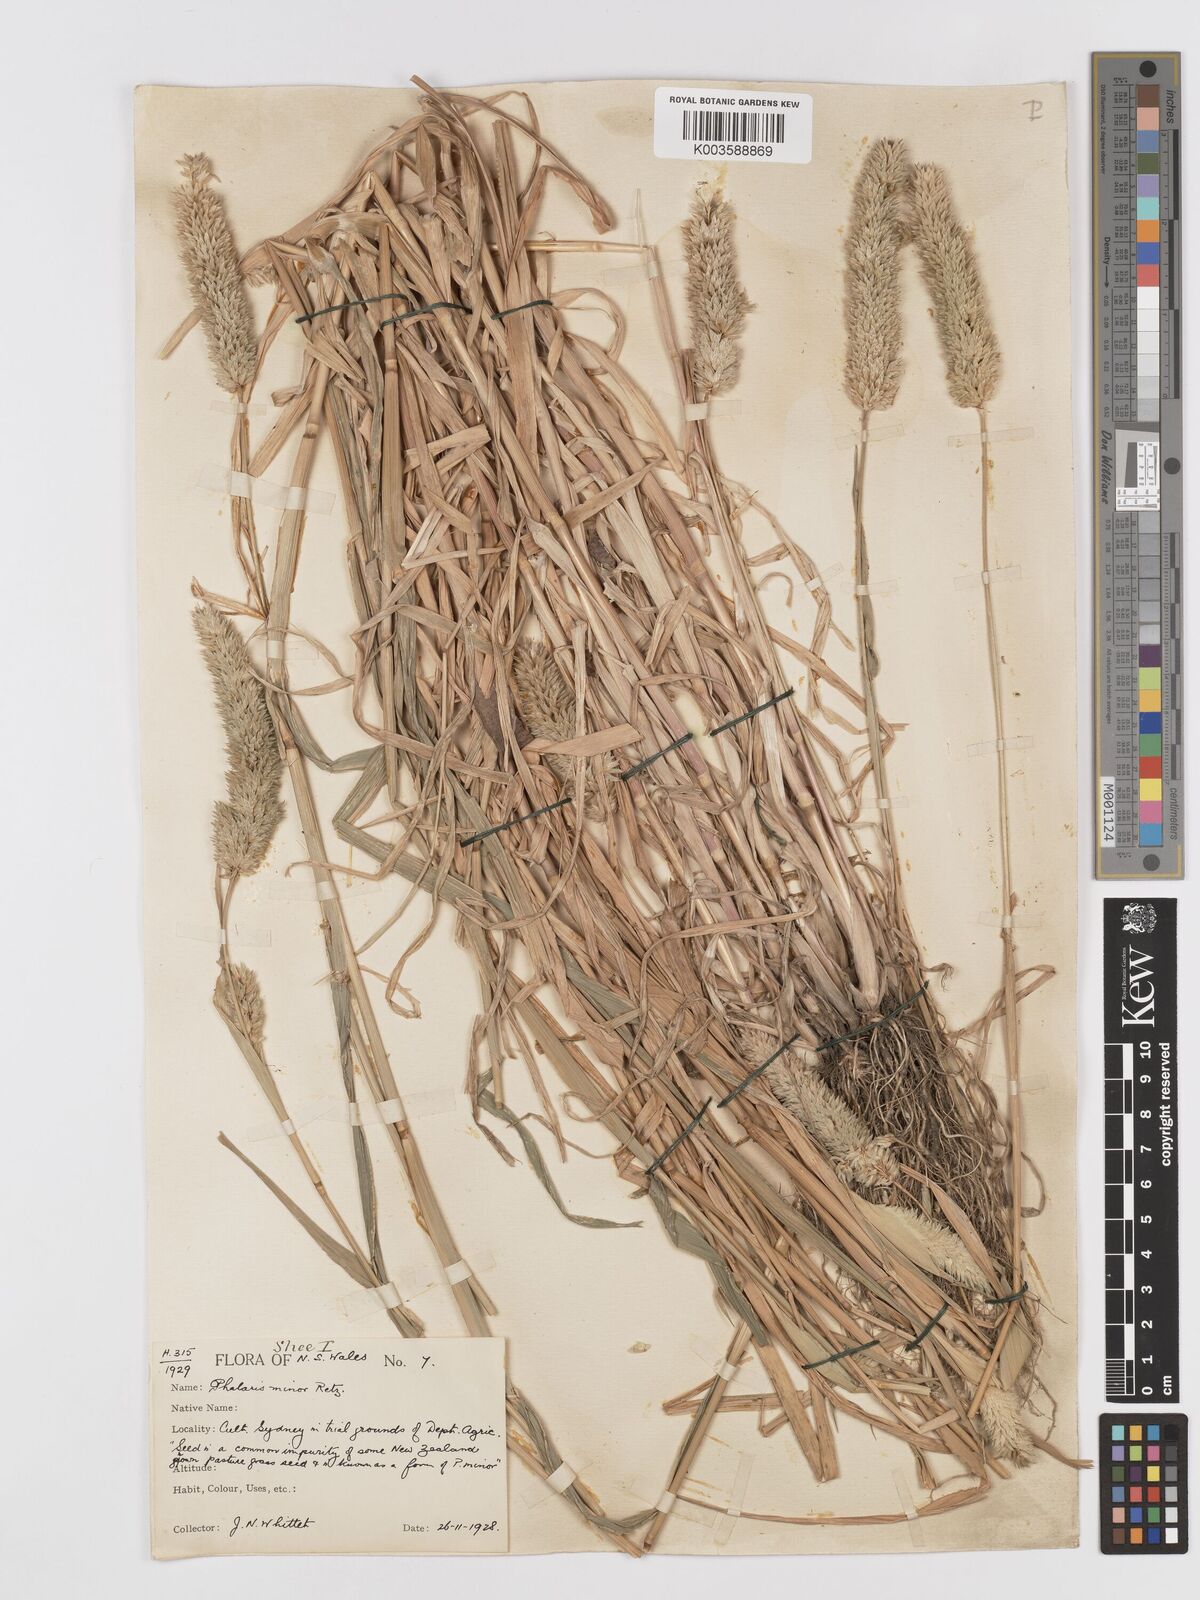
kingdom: Plantae
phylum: Tracheophyta
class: Liliopsida
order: Poales
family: Poaceae
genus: Phalaris
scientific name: Phalaris minor
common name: Littleseed canarygrass
